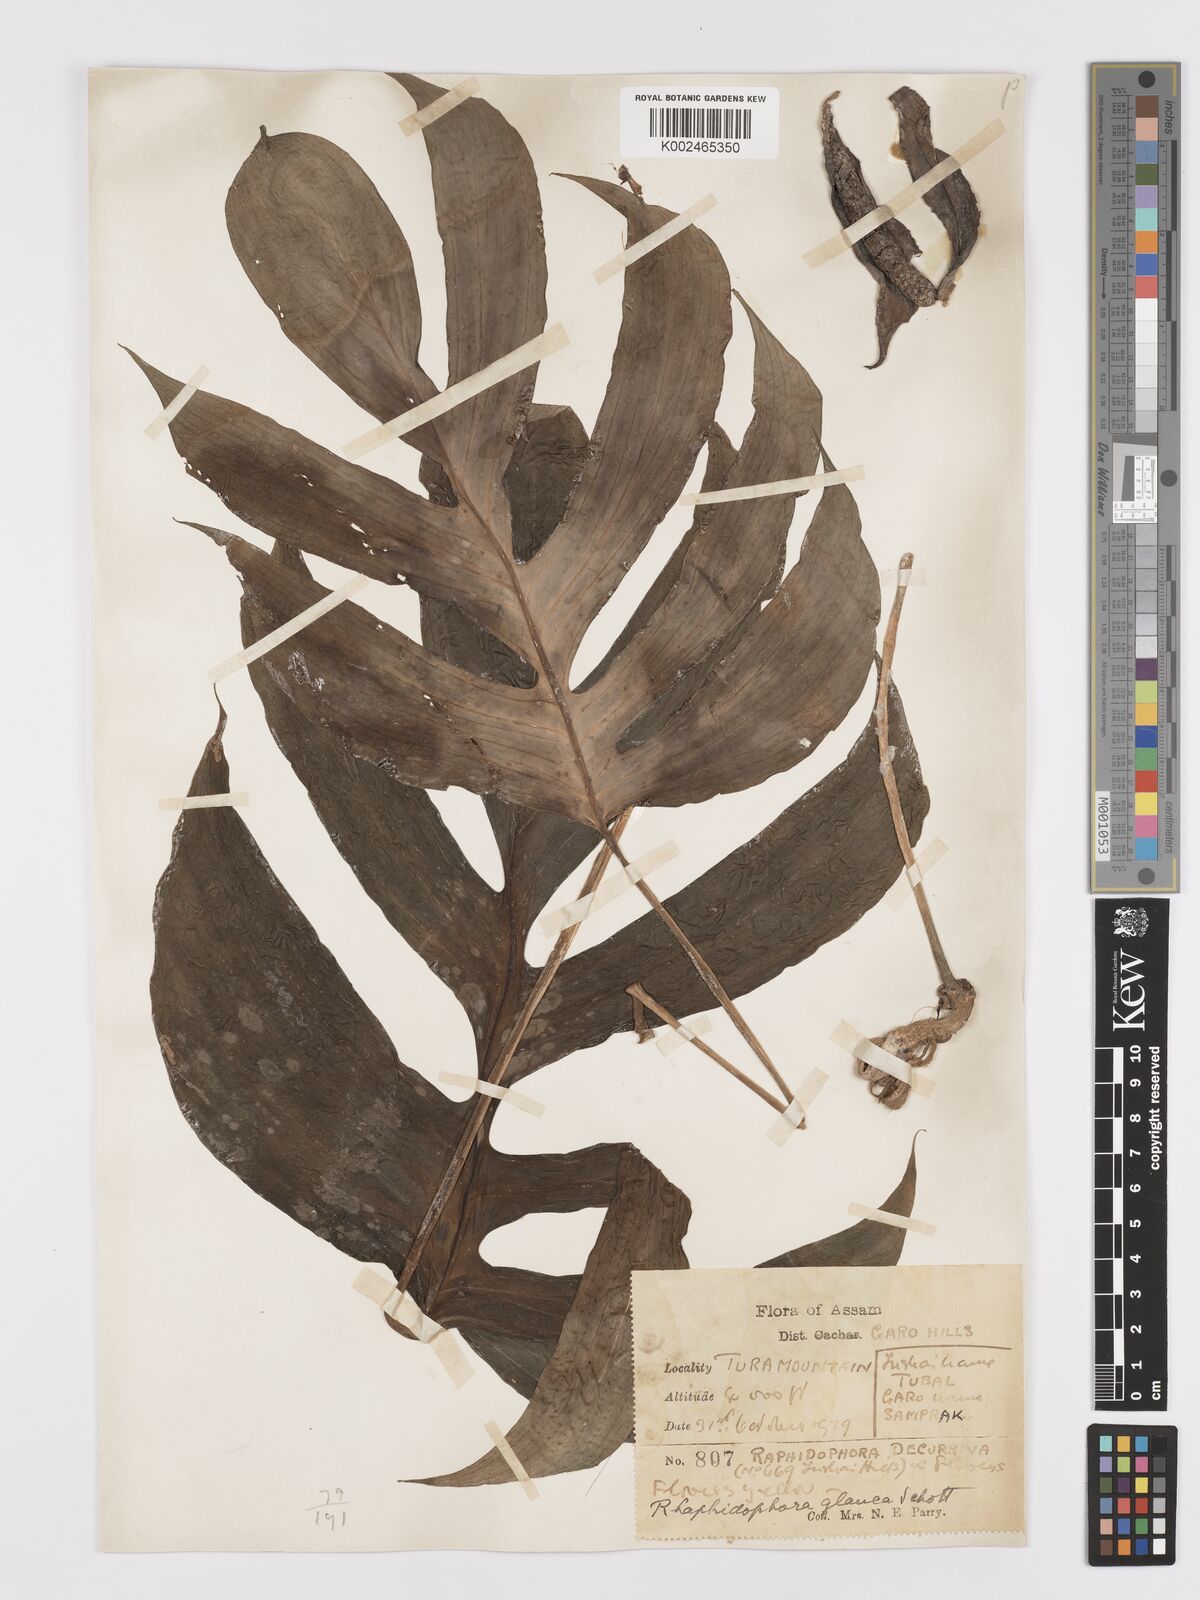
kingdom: Plantae
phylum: Tracheophyta
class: Liliopsida
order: Alismatales
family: Araceae
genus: Rhaphidophora
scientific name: Rhaphidophora glauca
